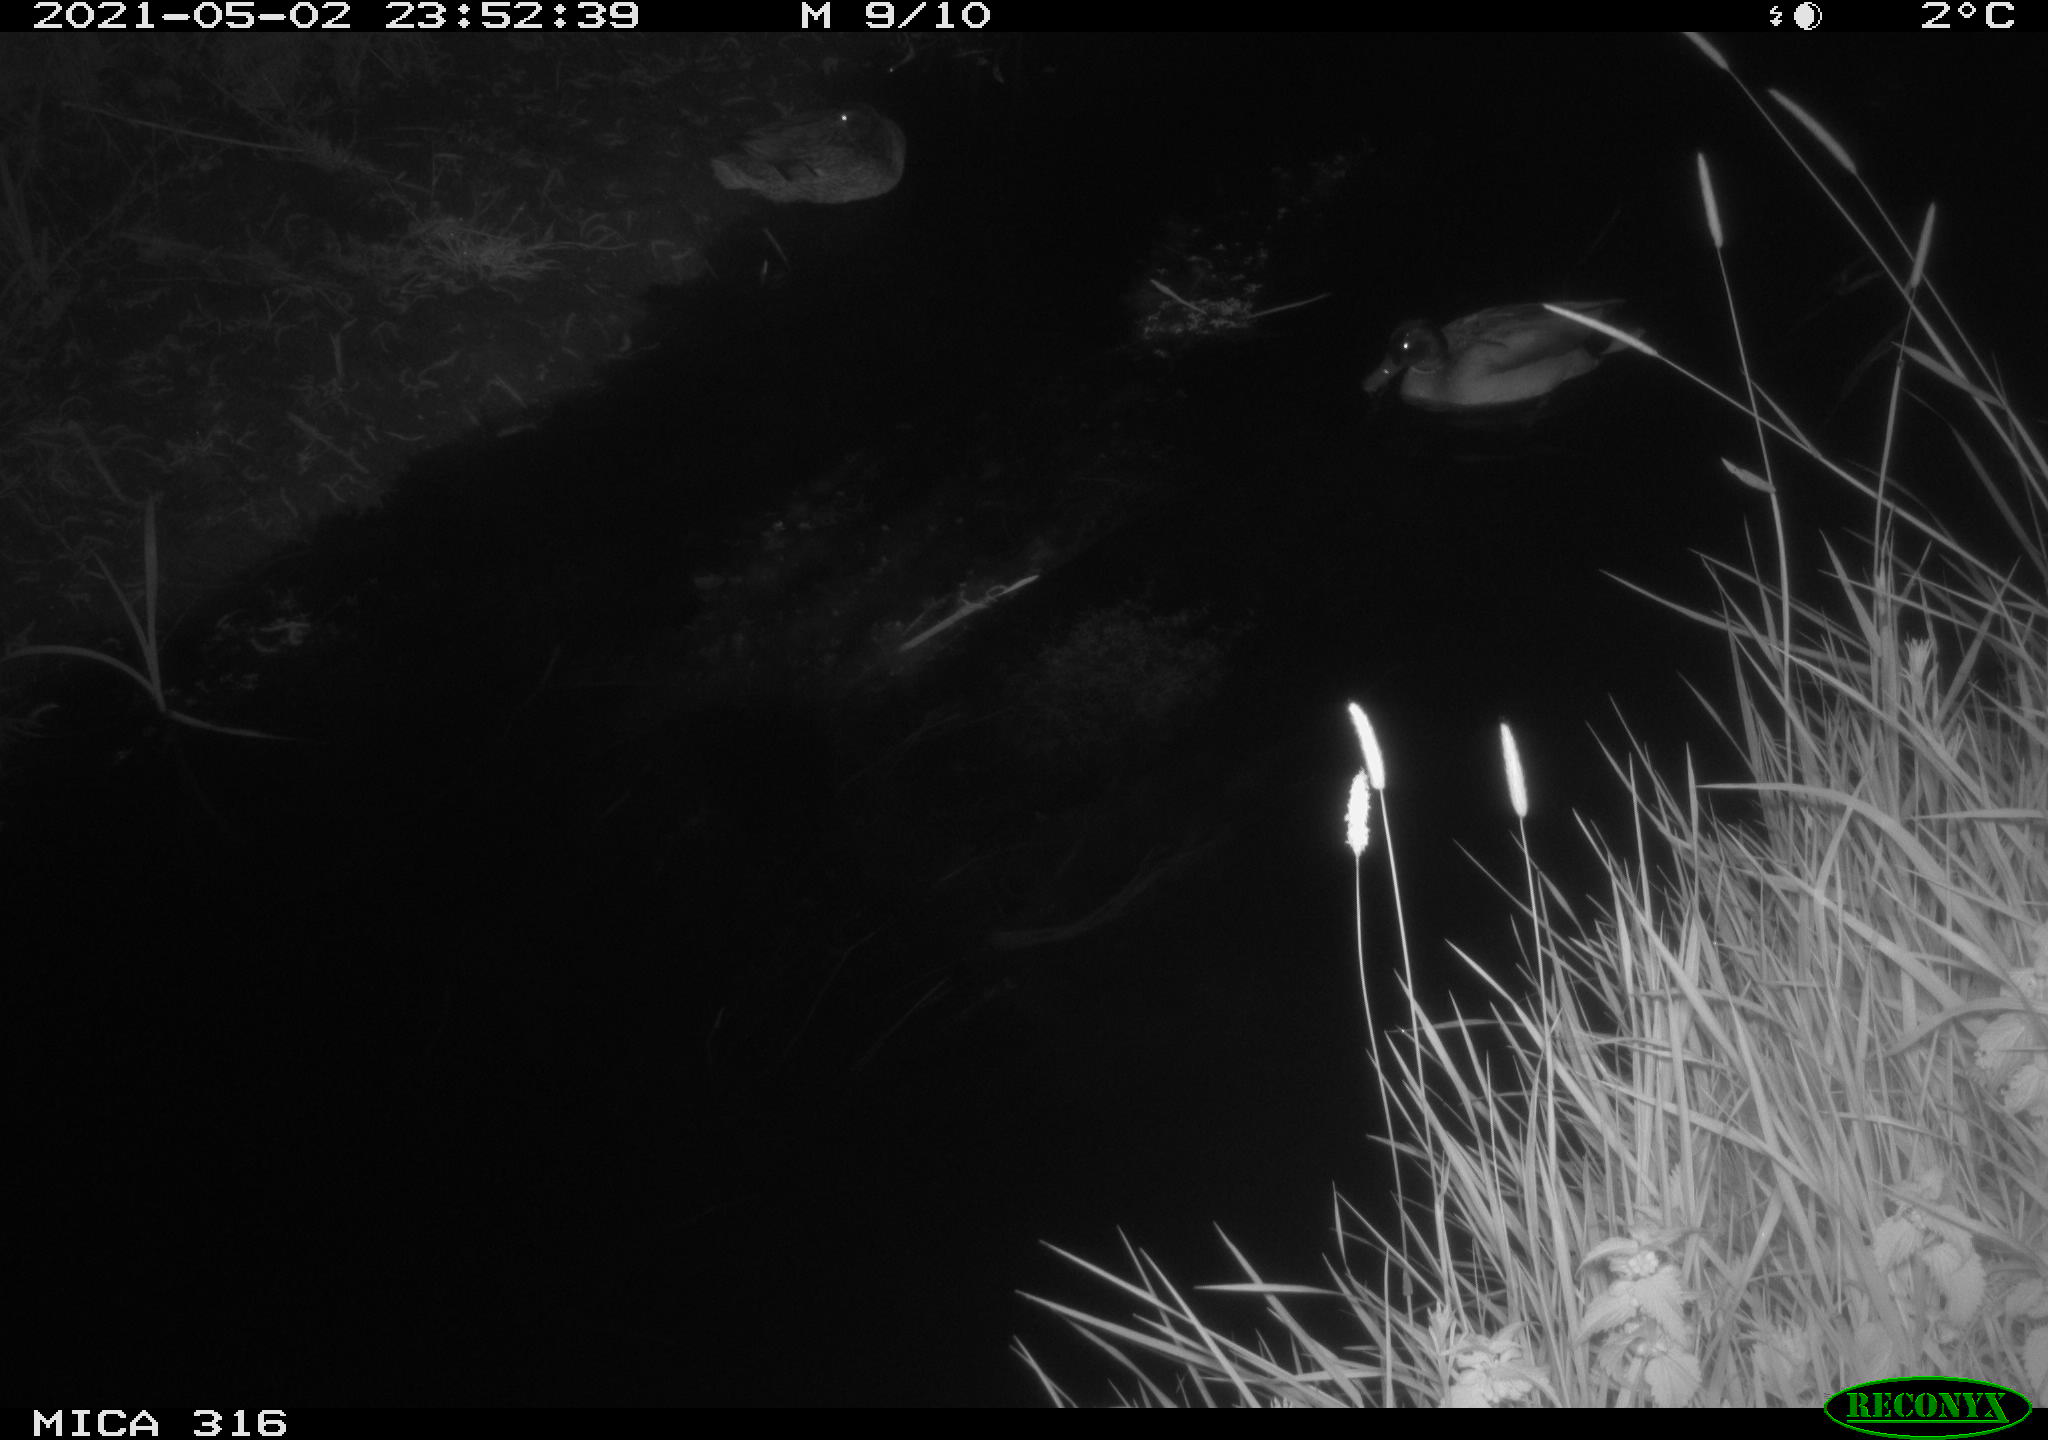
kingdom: Animalia
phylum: Chordata
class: Aves
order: Anseriformes
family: Anatidae
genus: Anas
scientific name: Anas platyrhynchos
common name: Mallard
